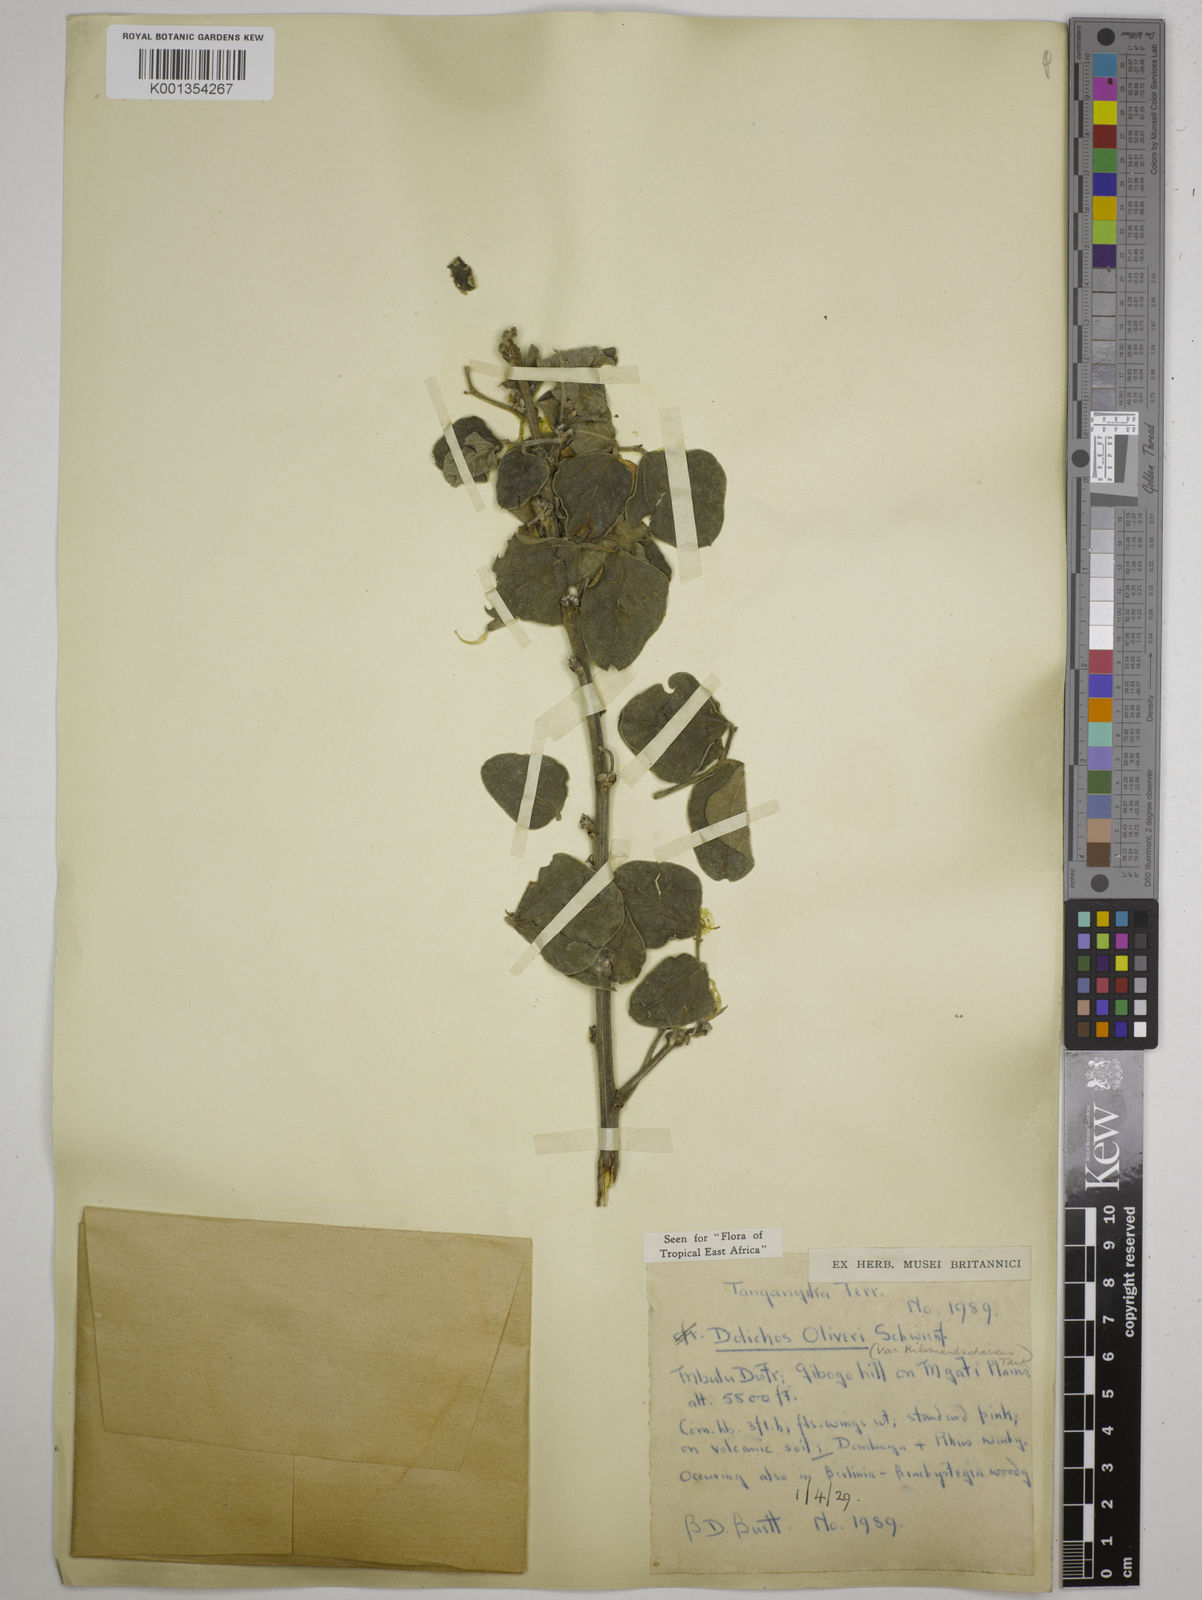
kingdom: Plantae
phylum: Tracheophyta
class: Magnoliopsida
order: Fabales
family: Fabaceae
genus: Dolichos
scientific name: Dolichos
